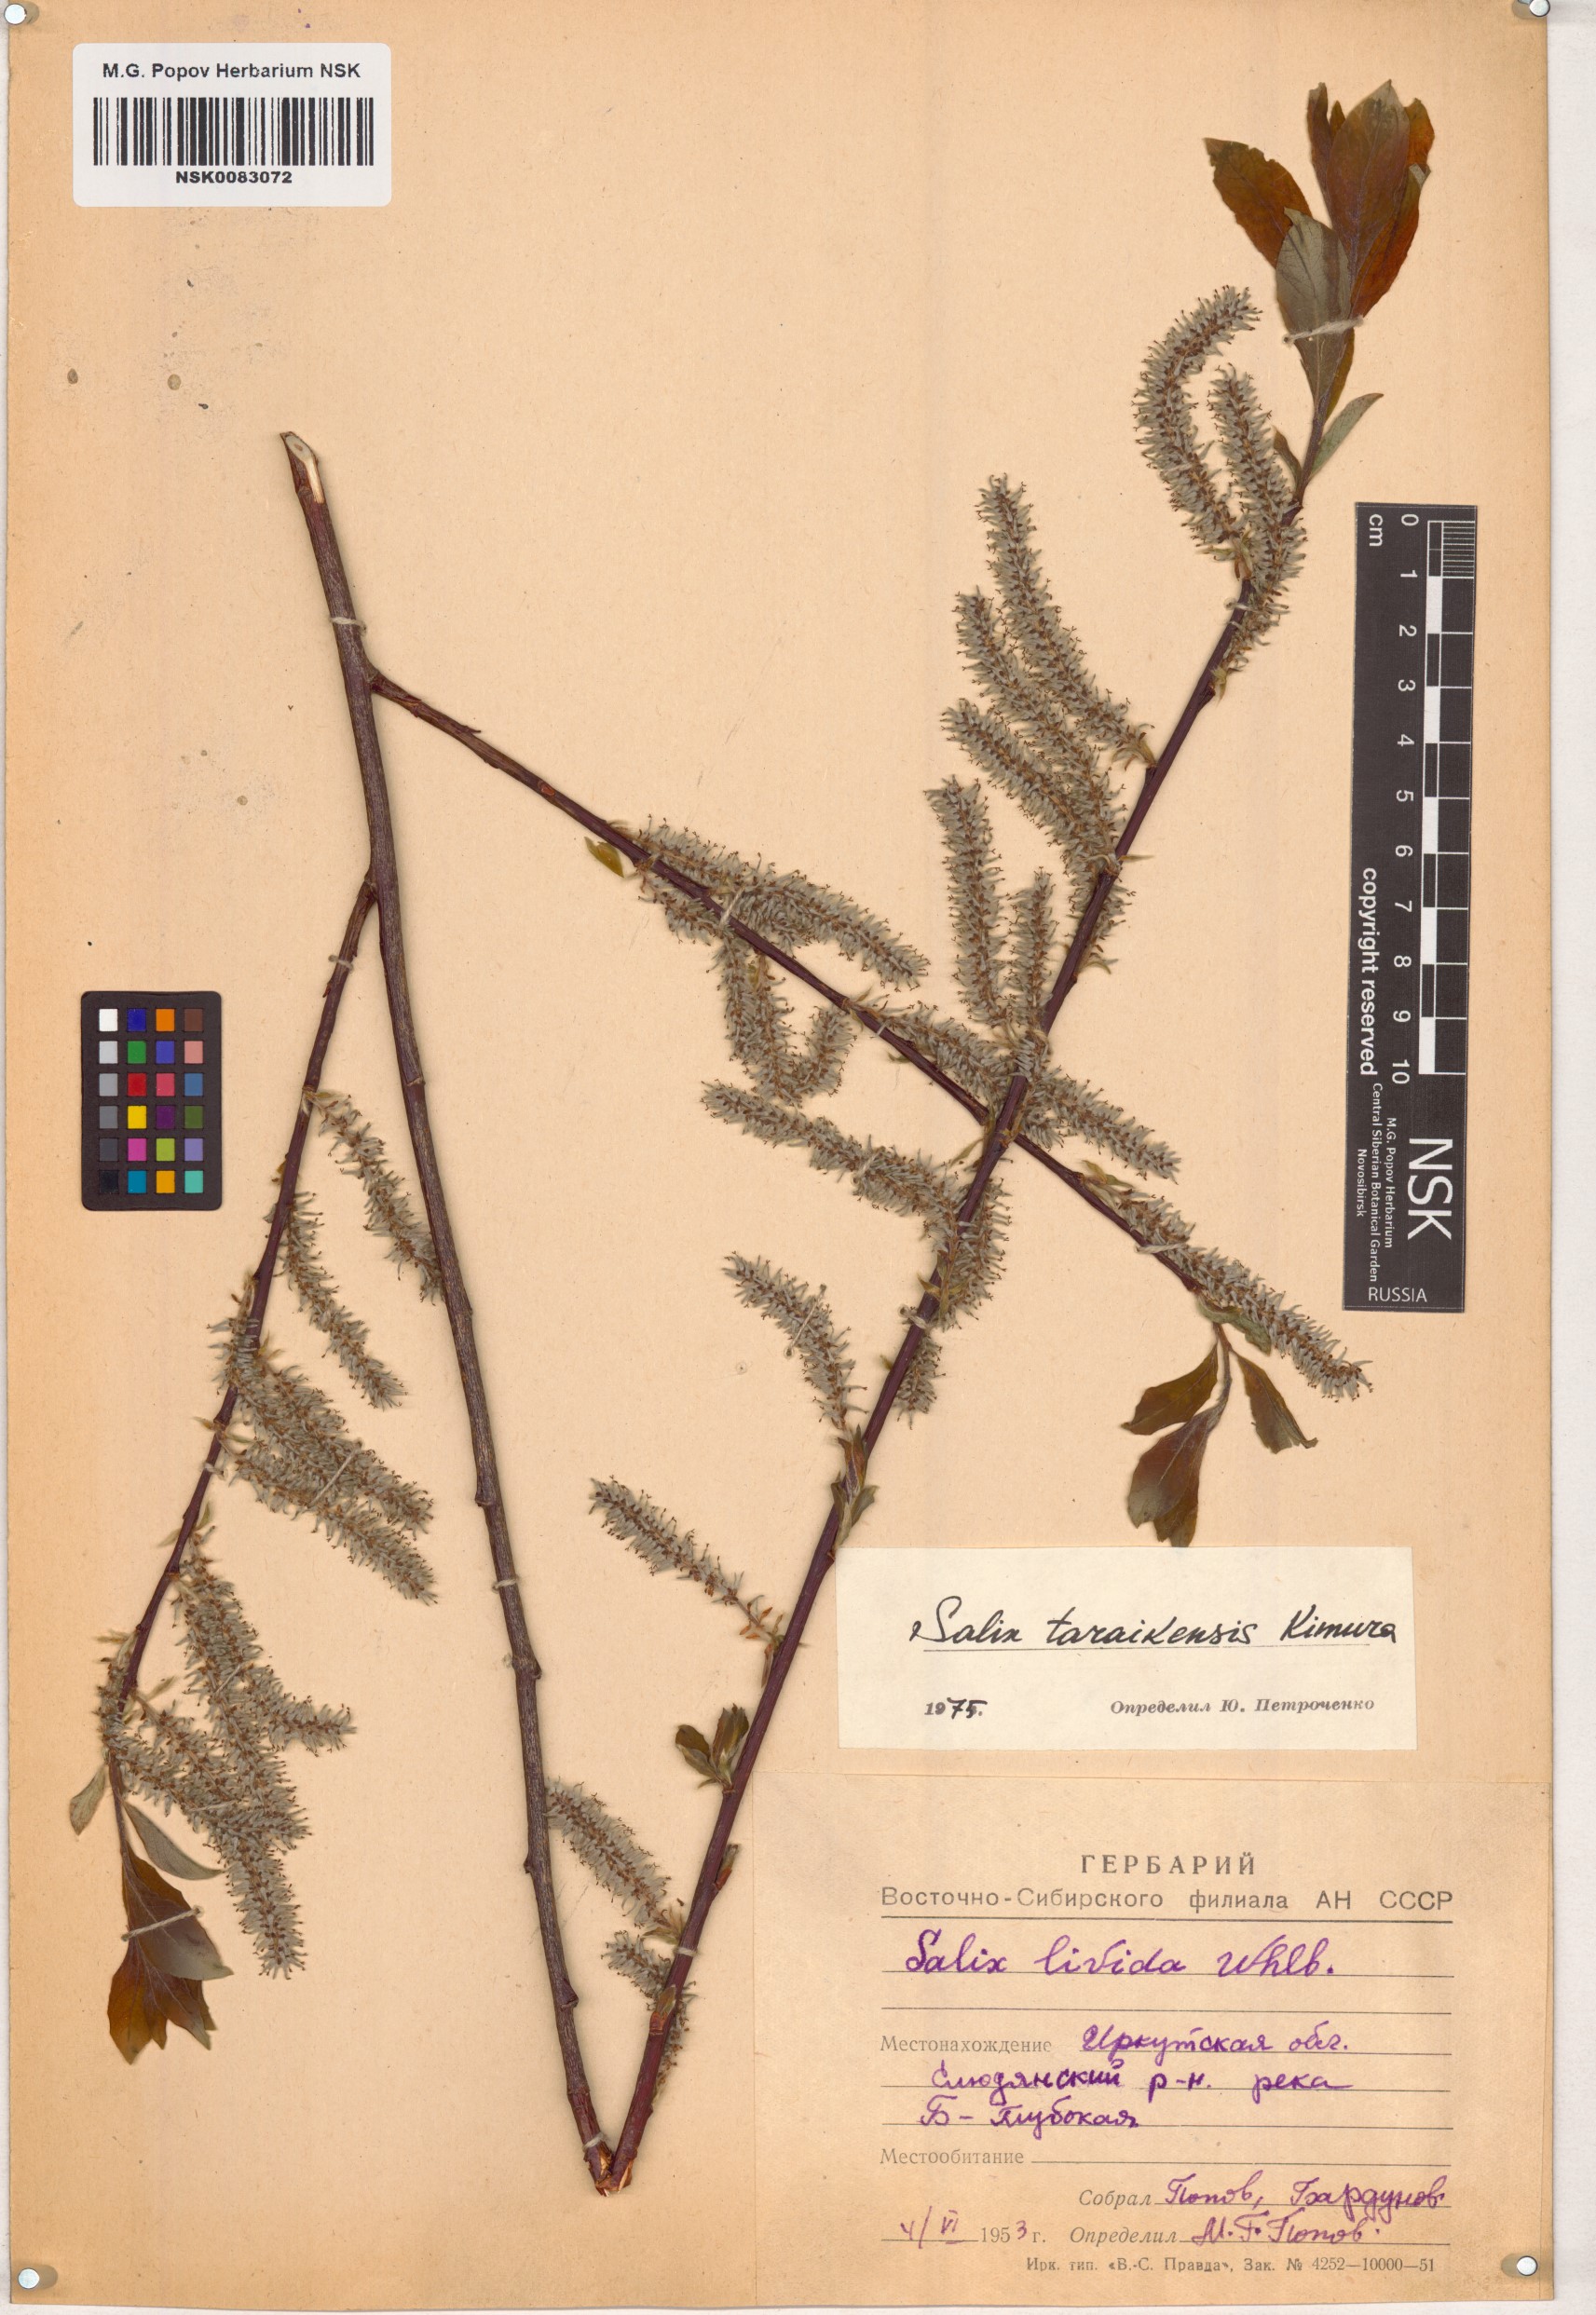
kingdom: Plantae
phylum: Tracheophyta
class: Magnoliopsida
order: Malpighiales
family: Salicaceae
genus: Salix
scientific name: Salix taraikensis
